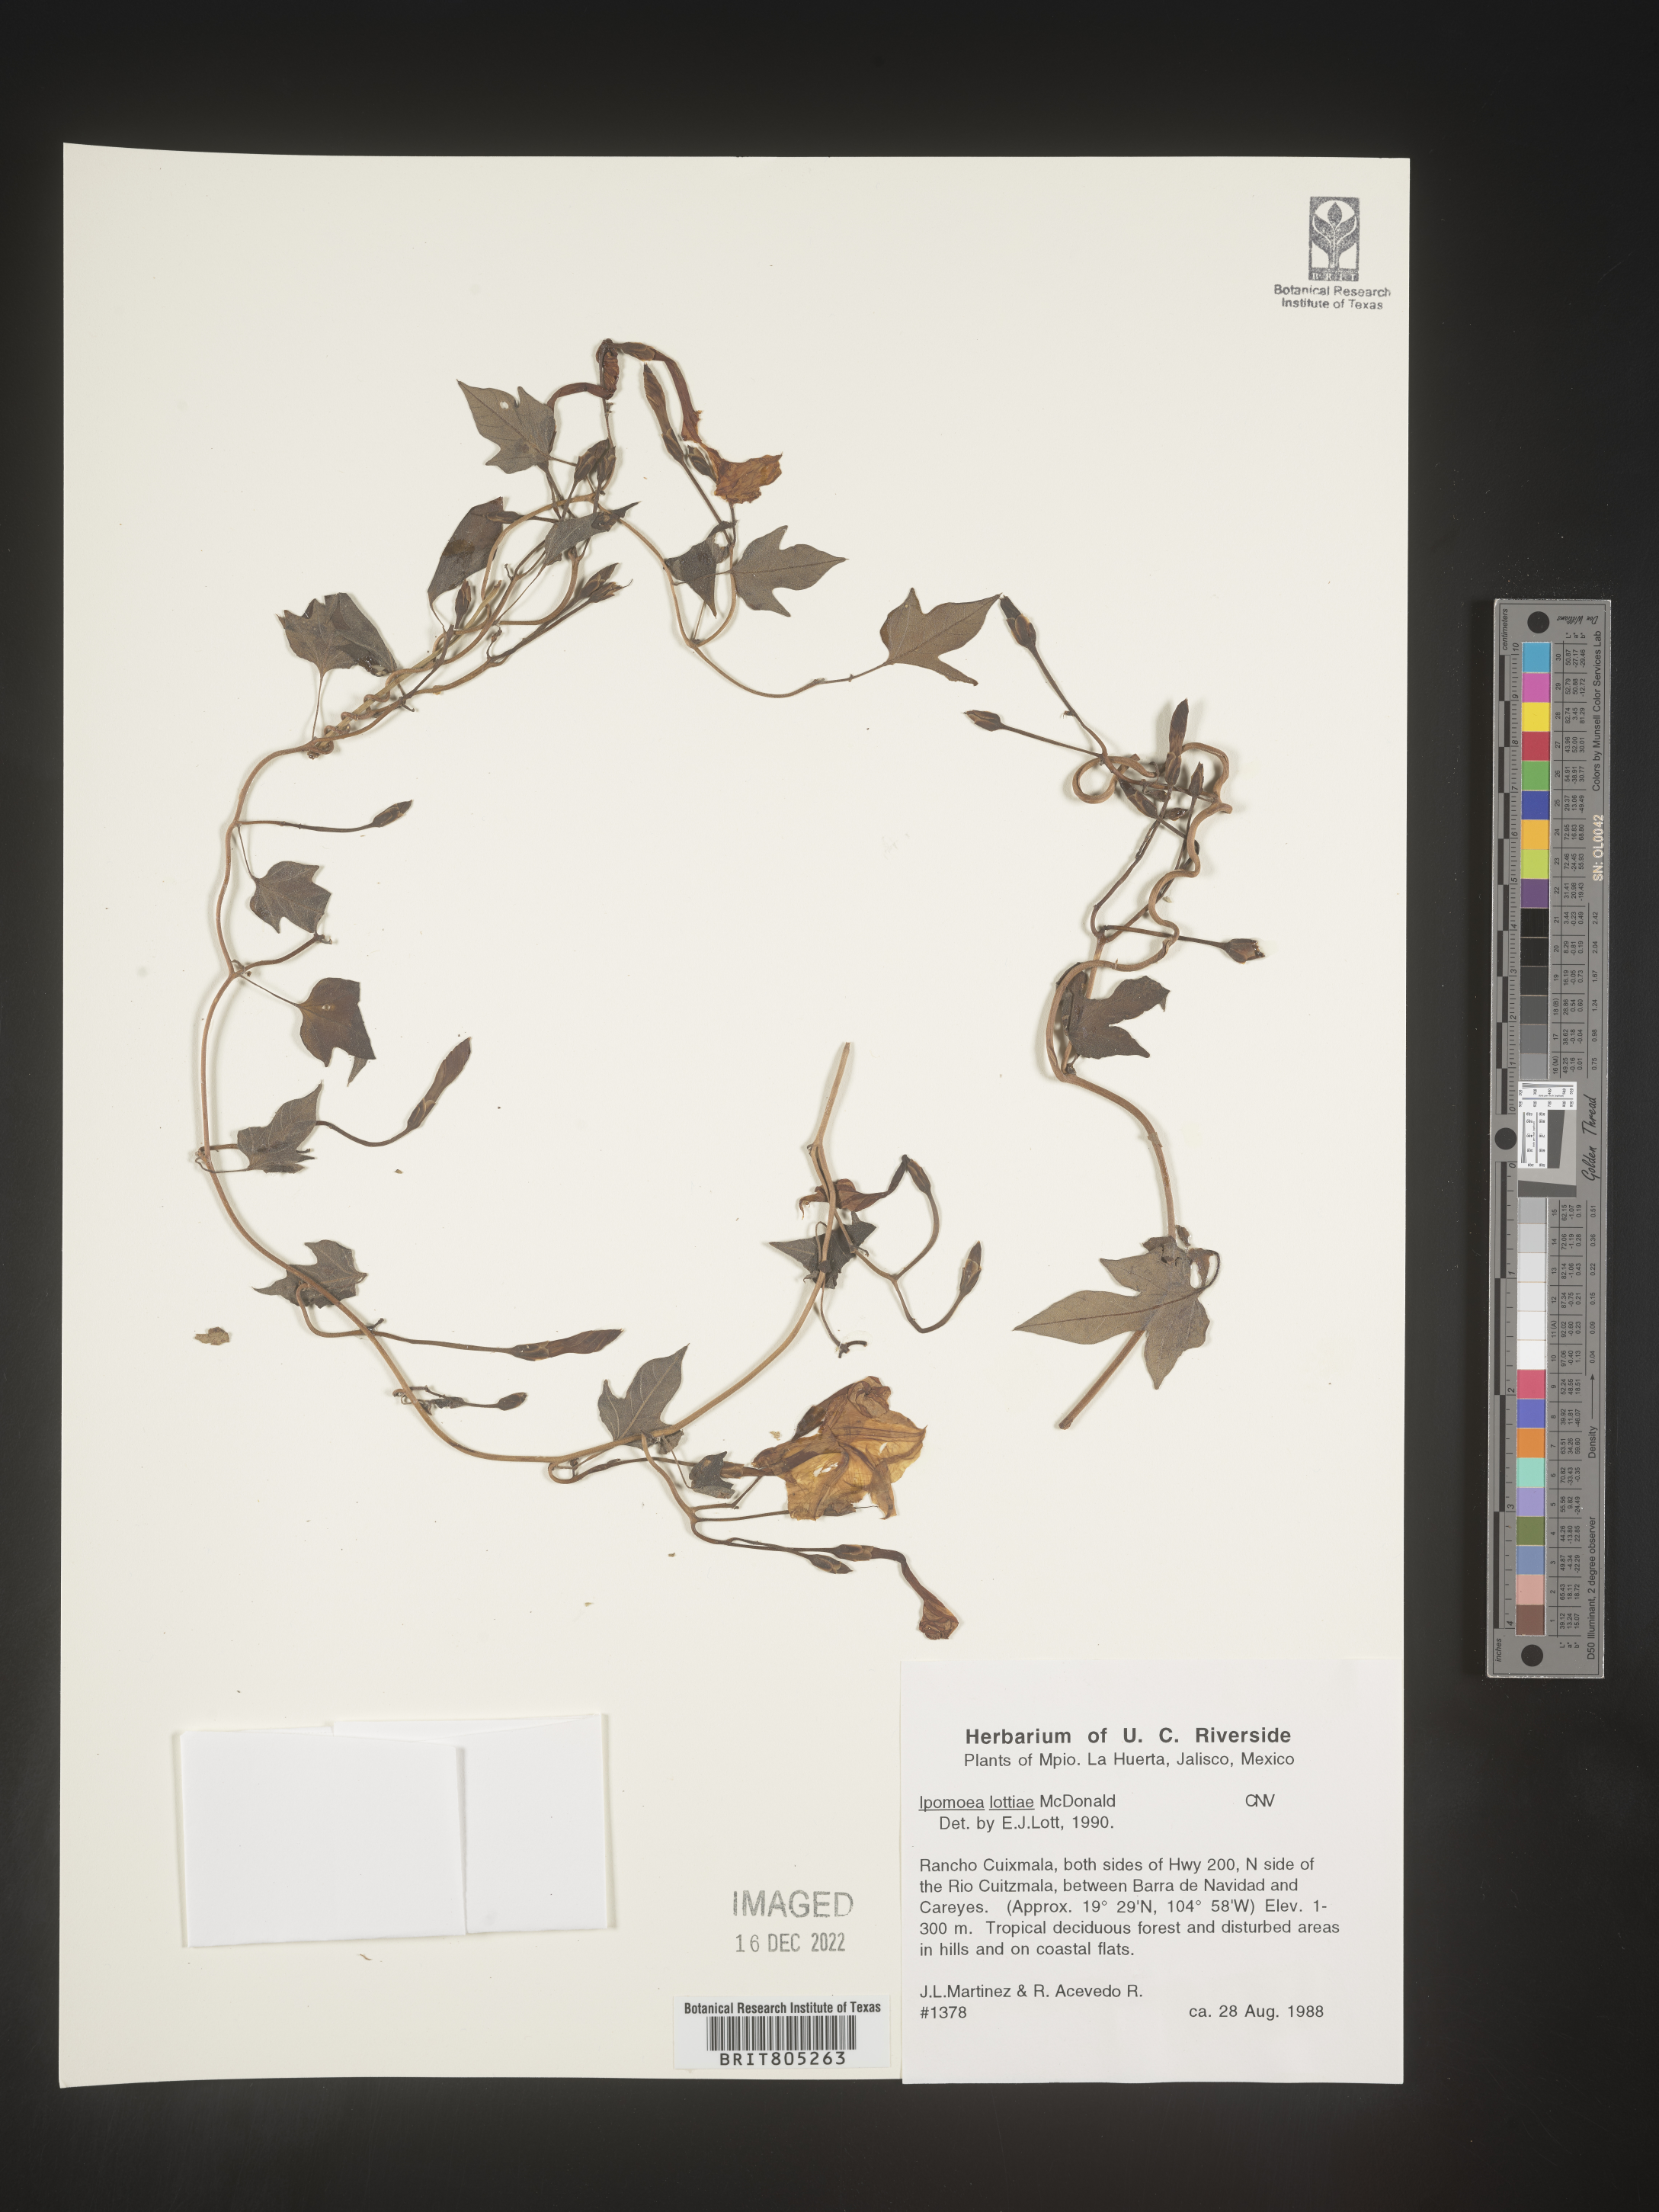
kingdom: Plantae
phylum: Tracheophyta
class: Magnoliopsida
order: Solanales
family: Convolvulaceae
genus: Ipomoea
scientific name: Ipomoea
